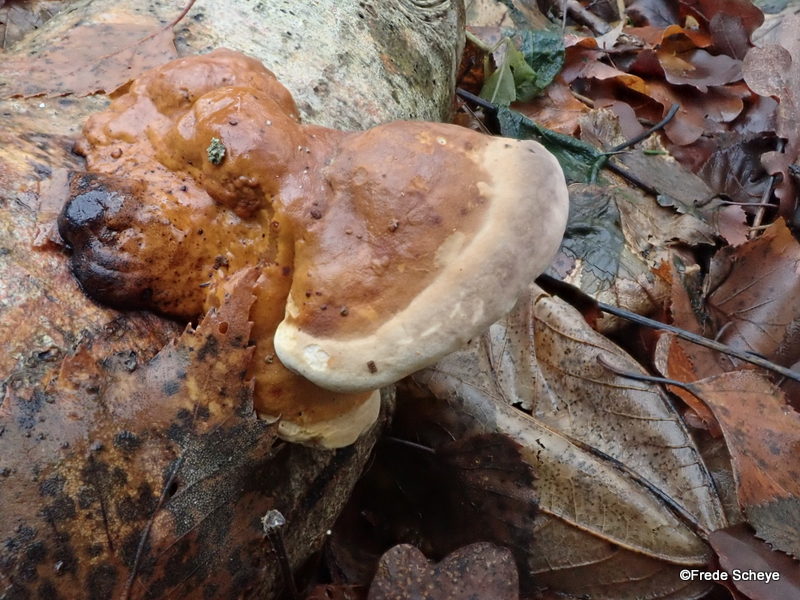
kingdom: Fungi
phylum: Basidiomycota
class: Agaricomycetes
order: Polyporales
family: Fomitopsidaceae
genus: Fomitopsis
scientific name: Fomitopsis pinicola
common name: randbæltet hovporesvamp
